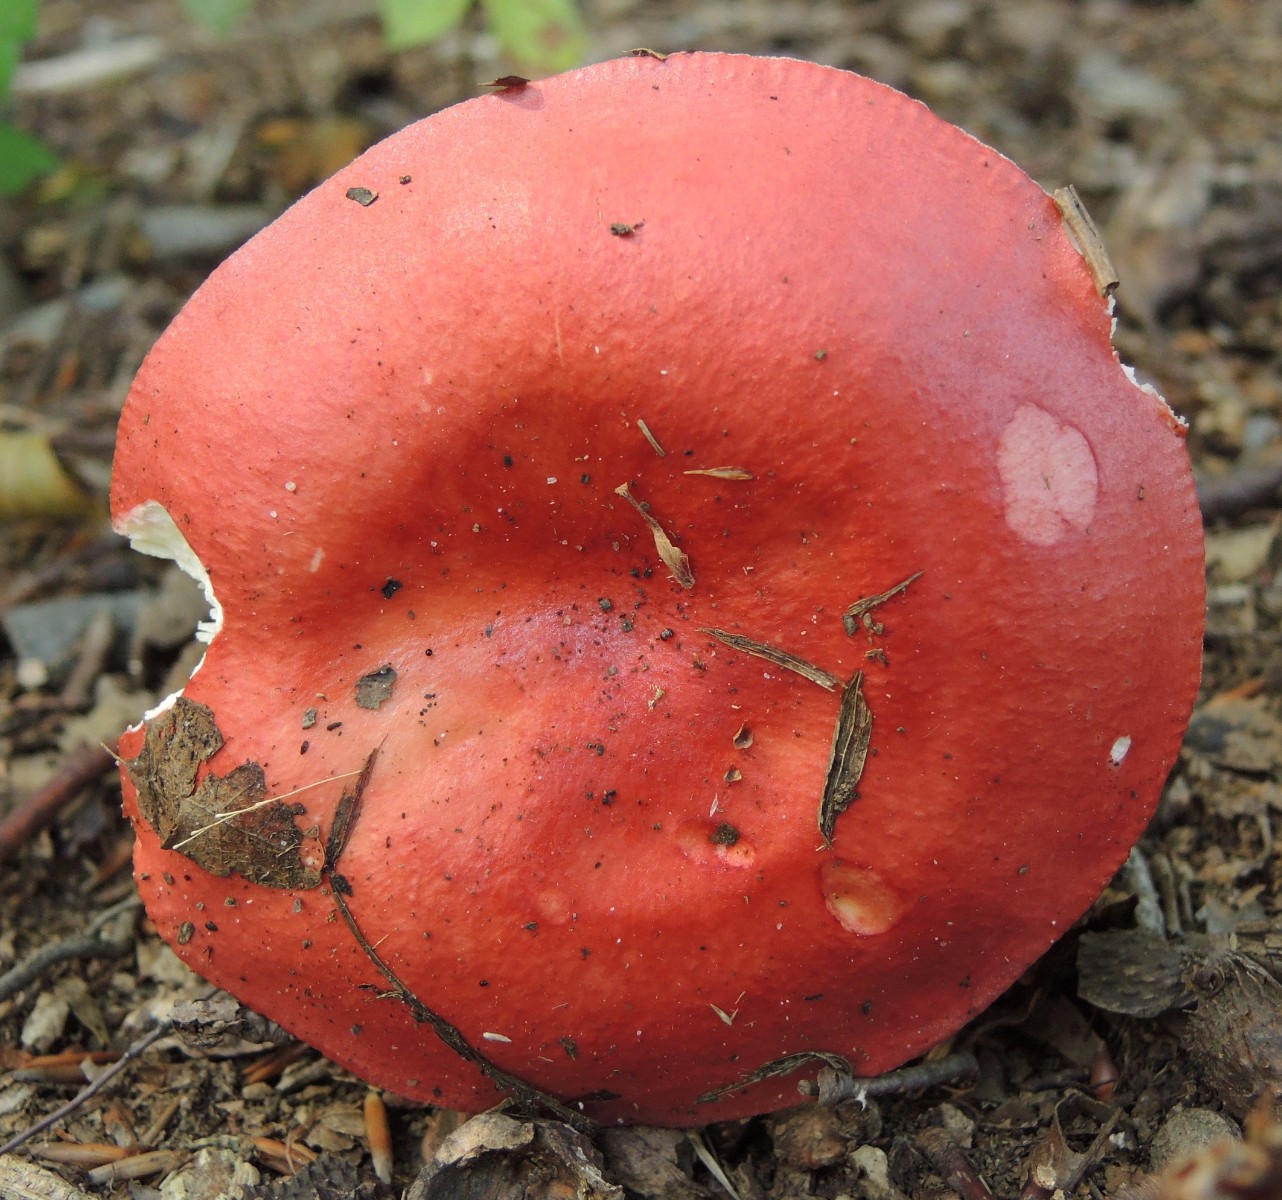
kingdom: Fungi
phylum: Basidiomycota
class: Agaricomycetes
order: Russulales
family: Russulaceae
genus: Russula
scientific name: Russula pseudointegra
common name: cinnoberrød skørhat
